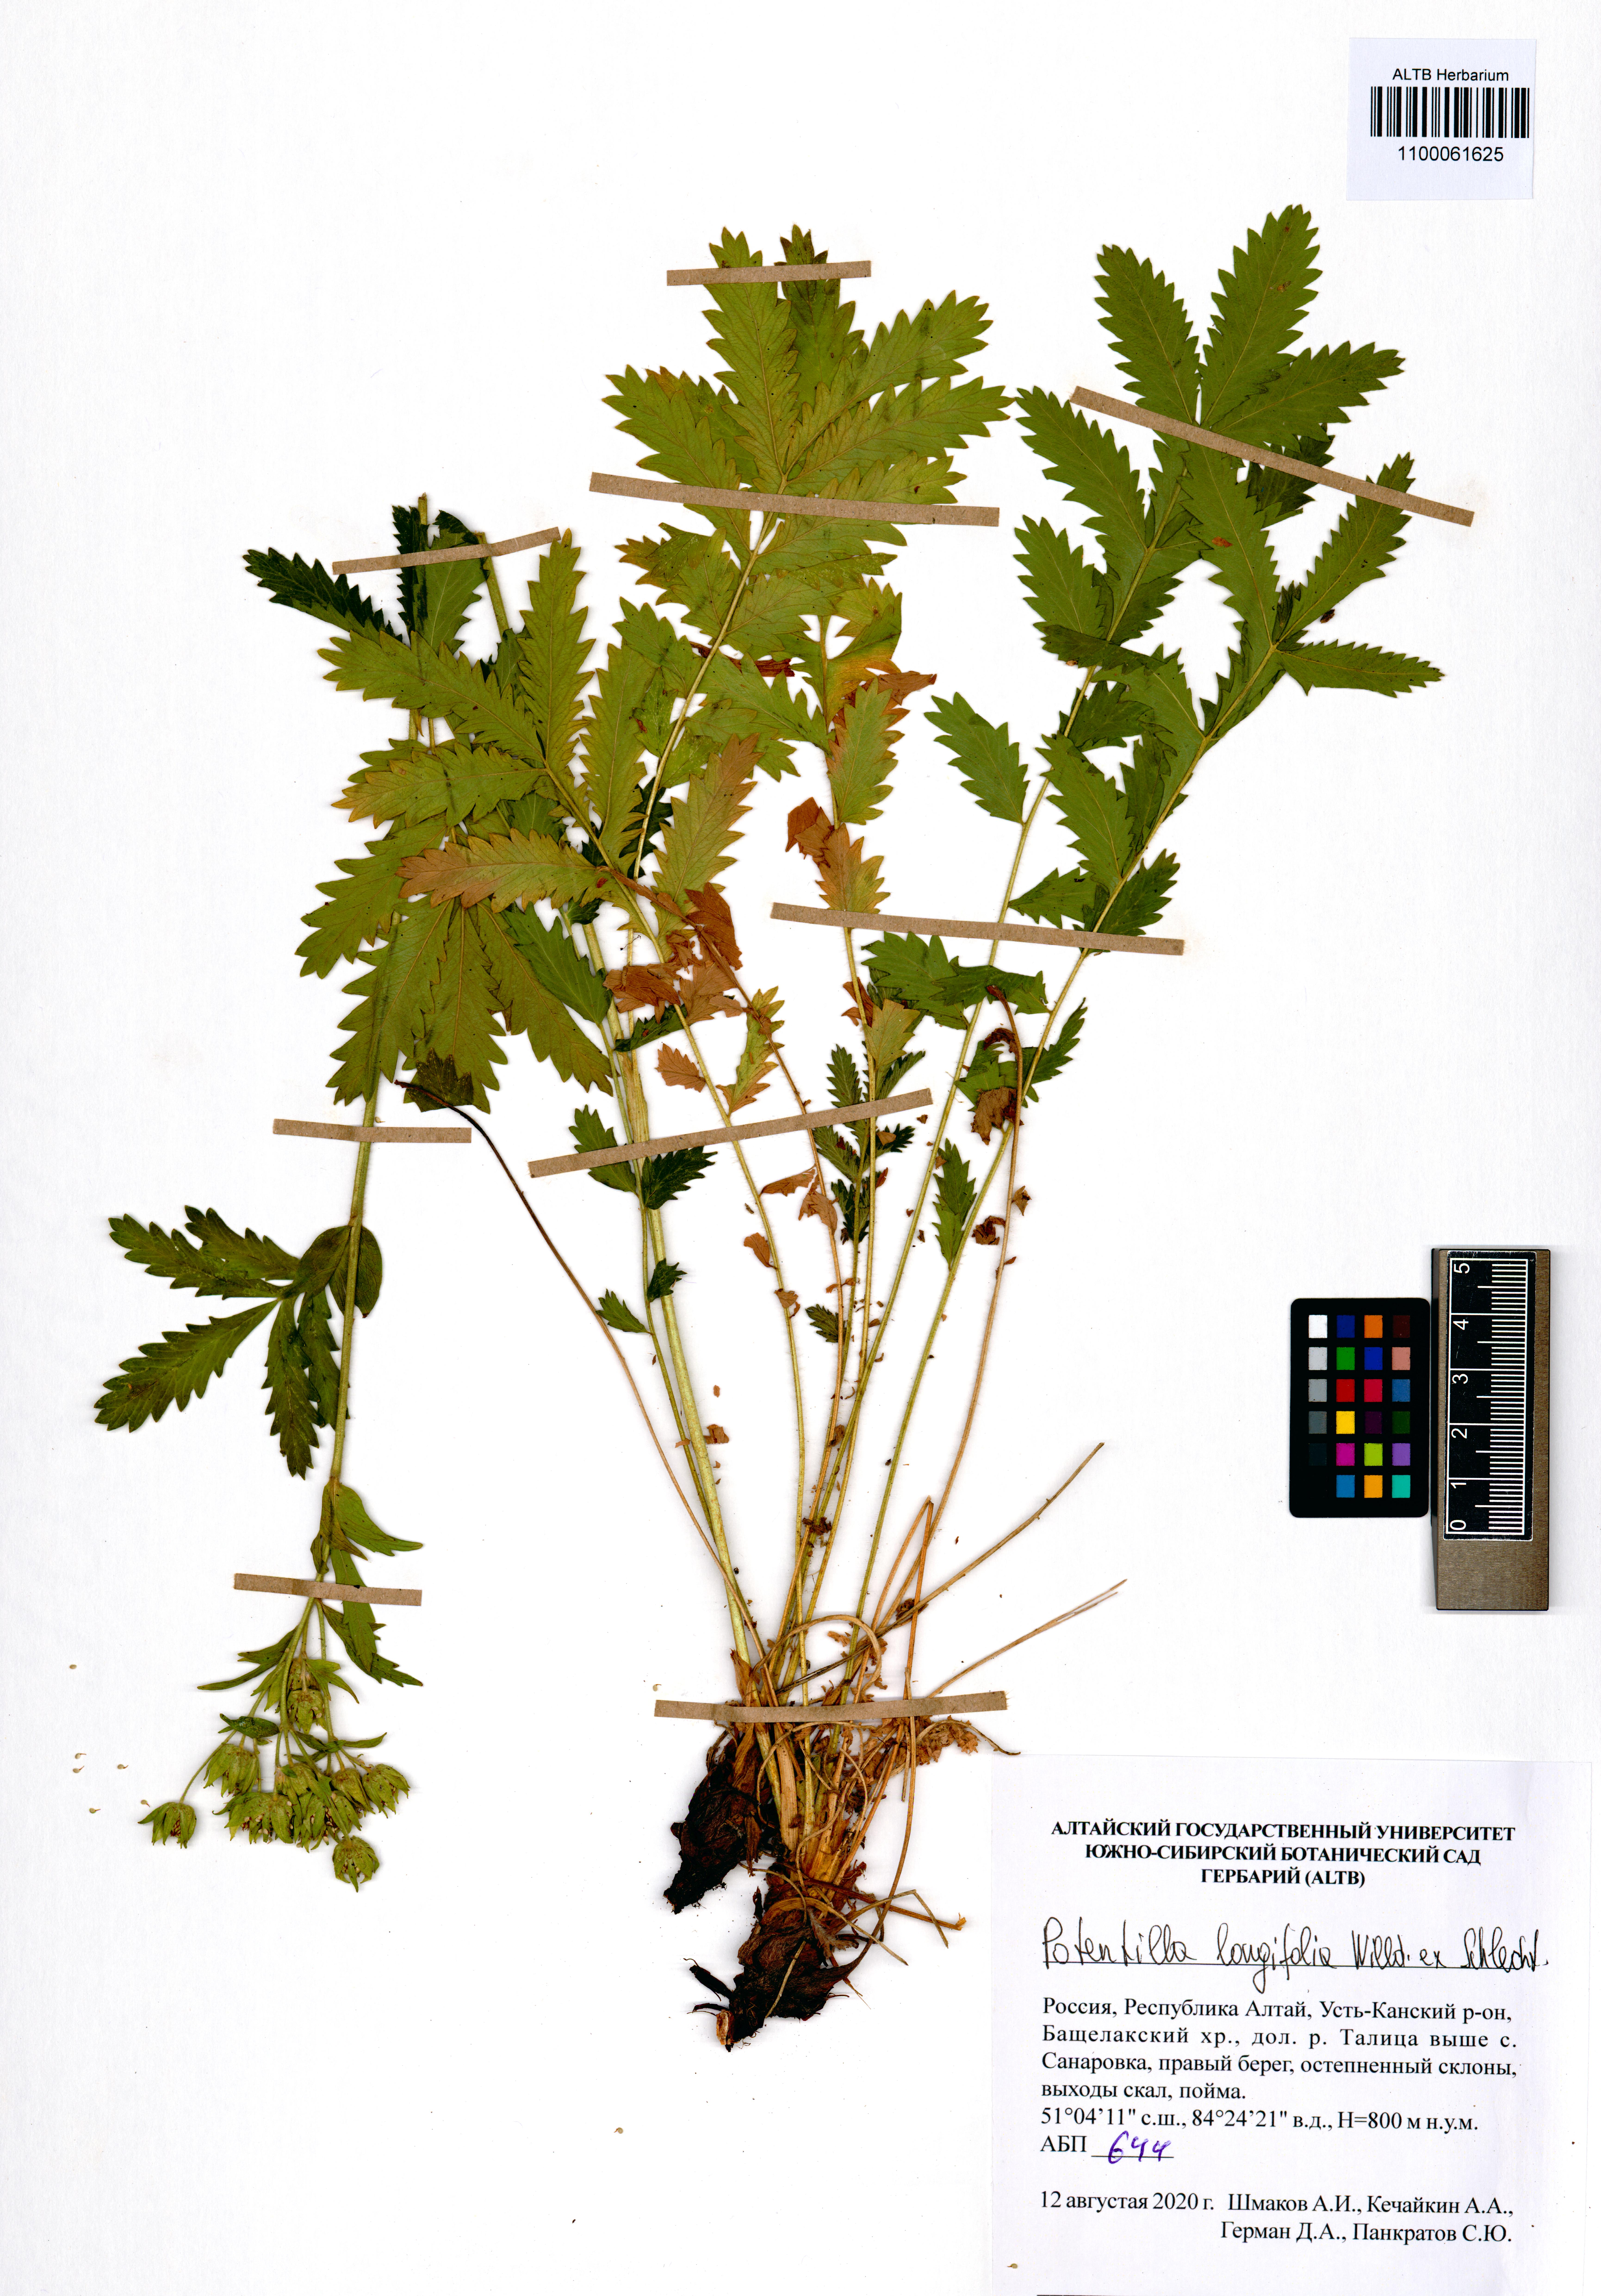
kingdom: Plantae
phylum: Tracheophyta
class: Magnoliopsida
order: Rosales
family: Rosaceae
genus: Potentilla
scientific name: Potentilla longifolia
